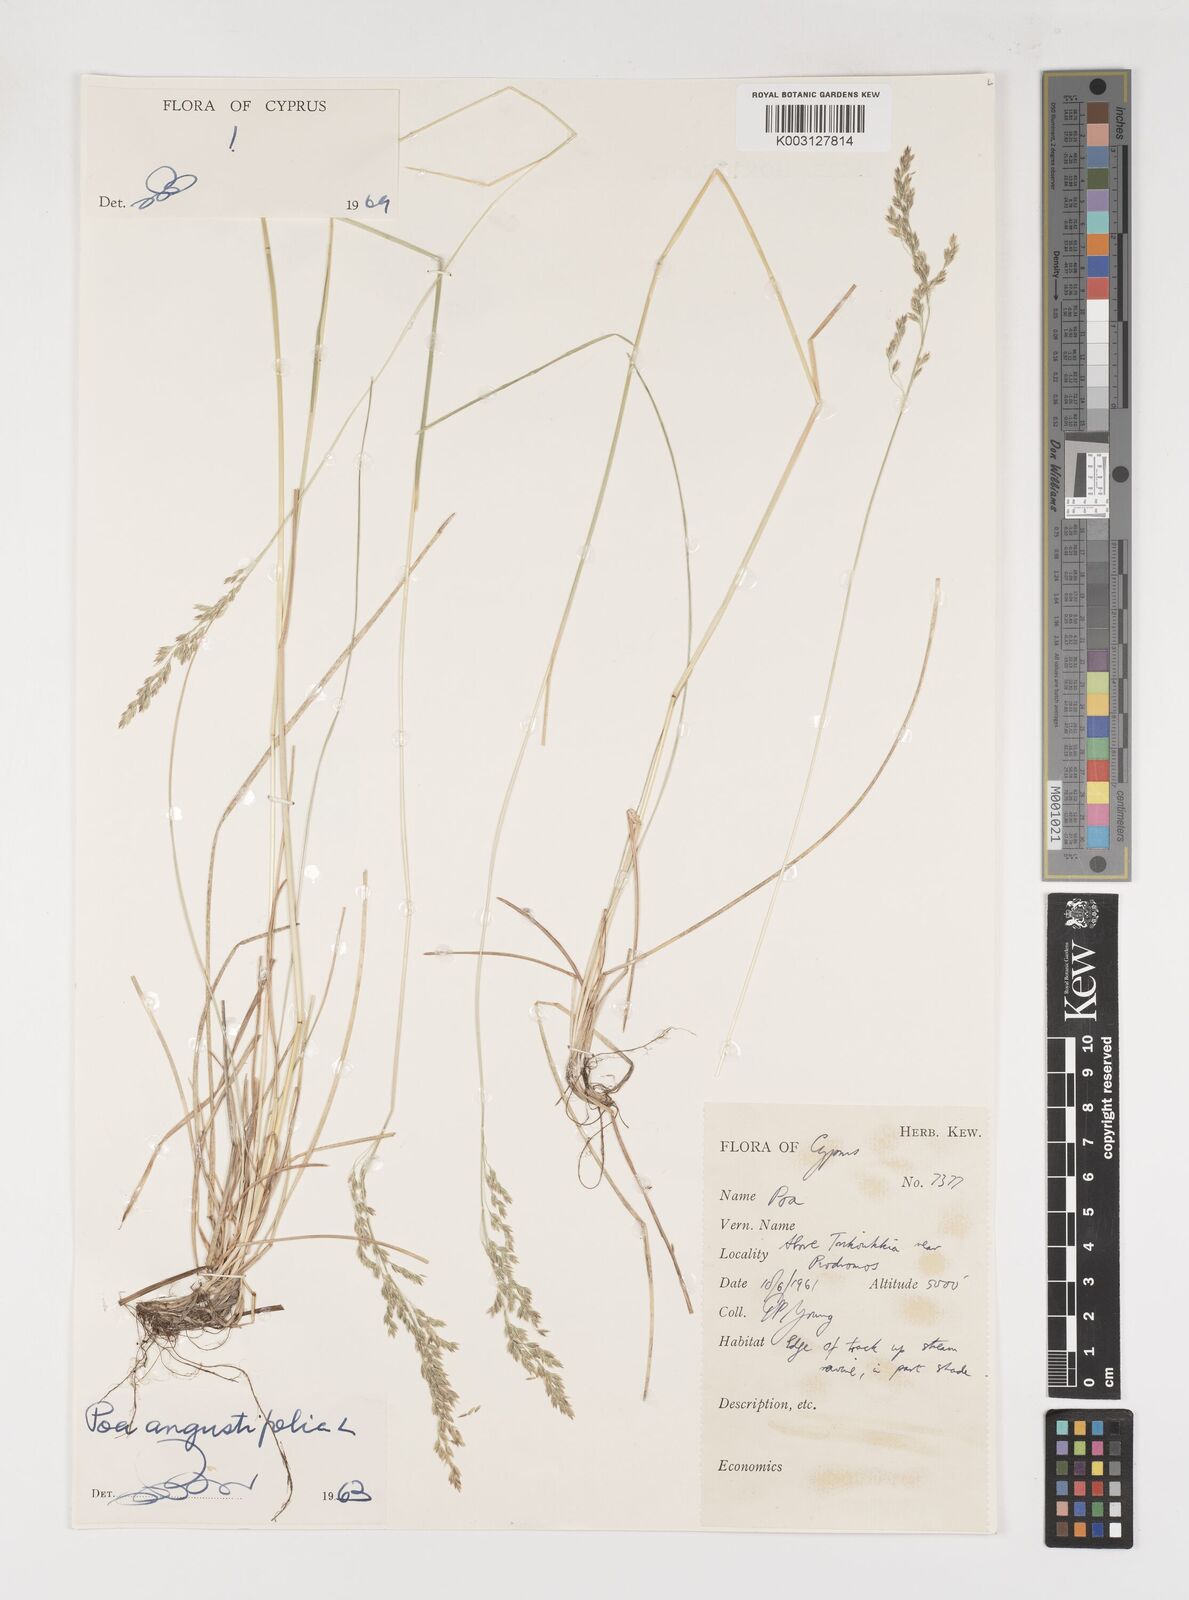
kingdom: Plantae
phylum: Tracheophyta
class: Liliopsida
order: Poales
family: Poaceae
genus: Poa
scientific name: Poa angustifolia
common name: Narrow-leaved meadow-grass
